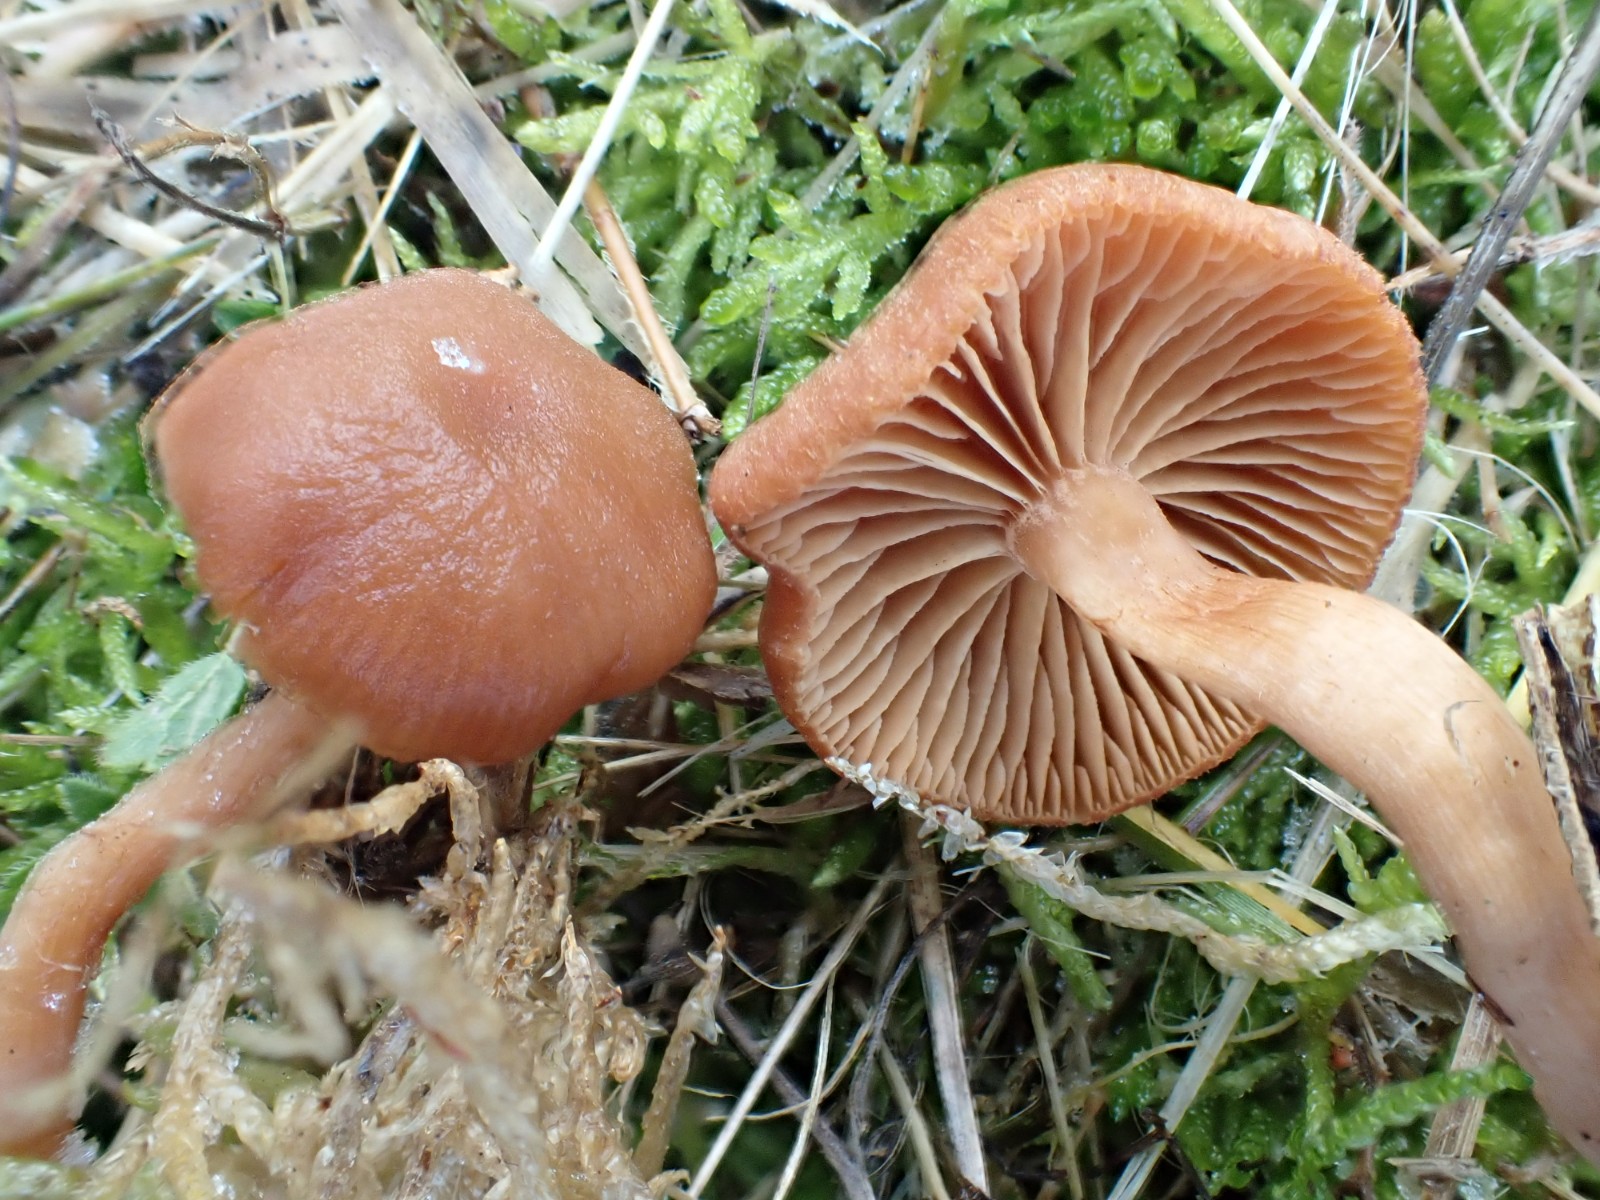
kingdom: Fungi
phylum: Basidiomycota
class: Agaricomycetes
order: Agaricales
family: Tubariaceae
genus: Tubaria
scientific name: Tubaria furfuracea
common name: kliddet fnughat
